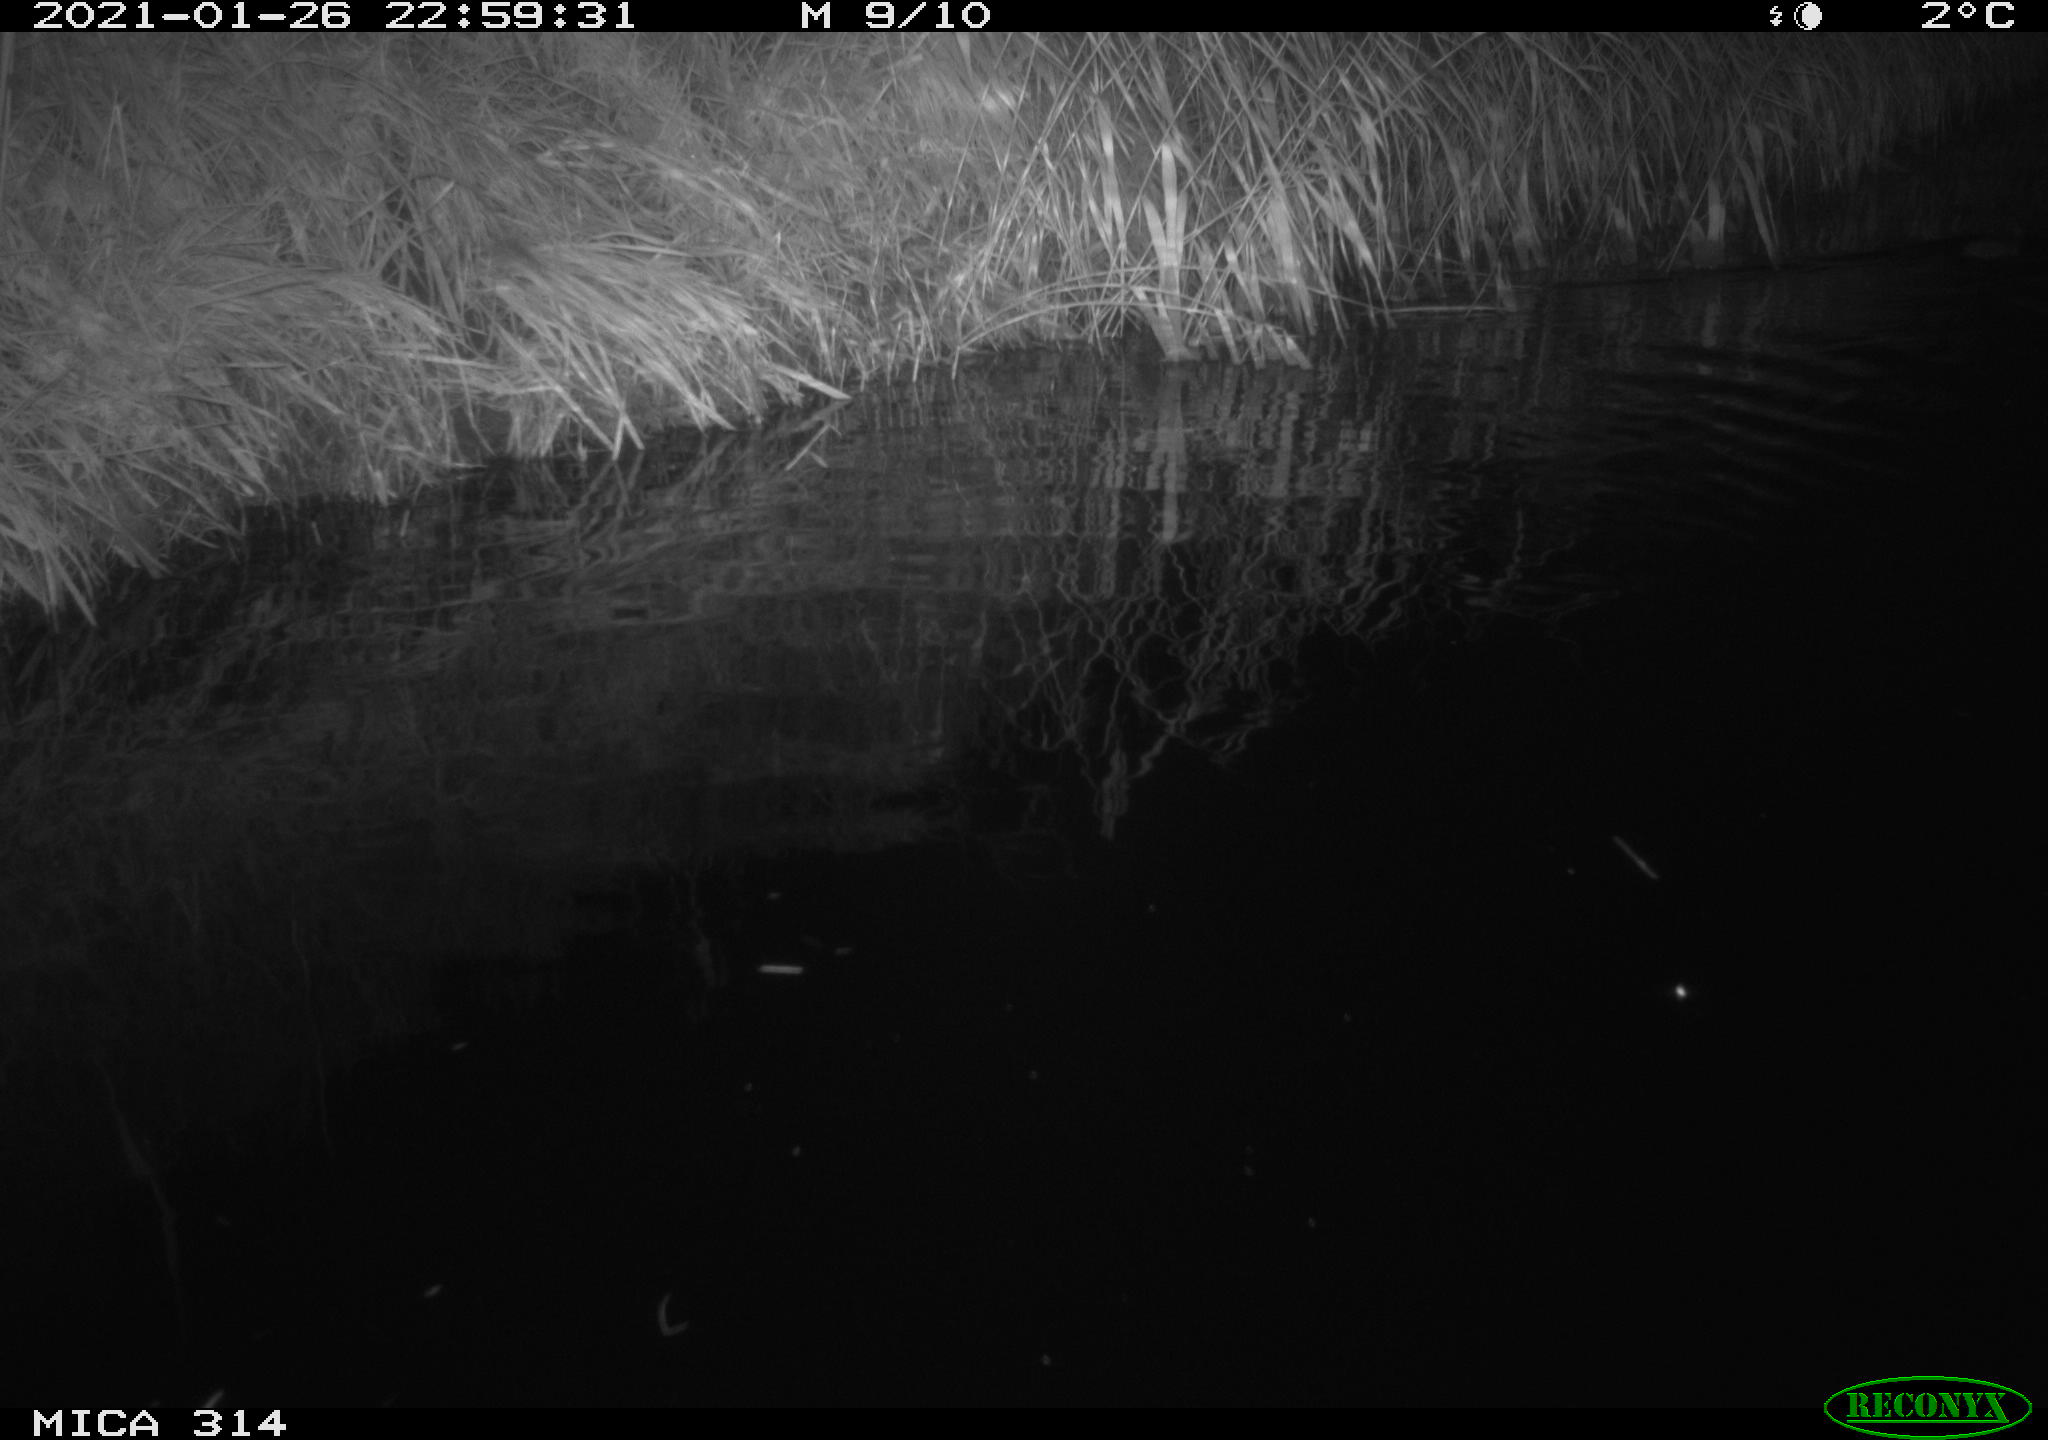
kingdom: Animalia
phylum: Chordata
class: Mammalia
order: Rodentia
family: Muridae
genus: Rattus
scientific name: Rattus norvegicus
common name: Brown rat
